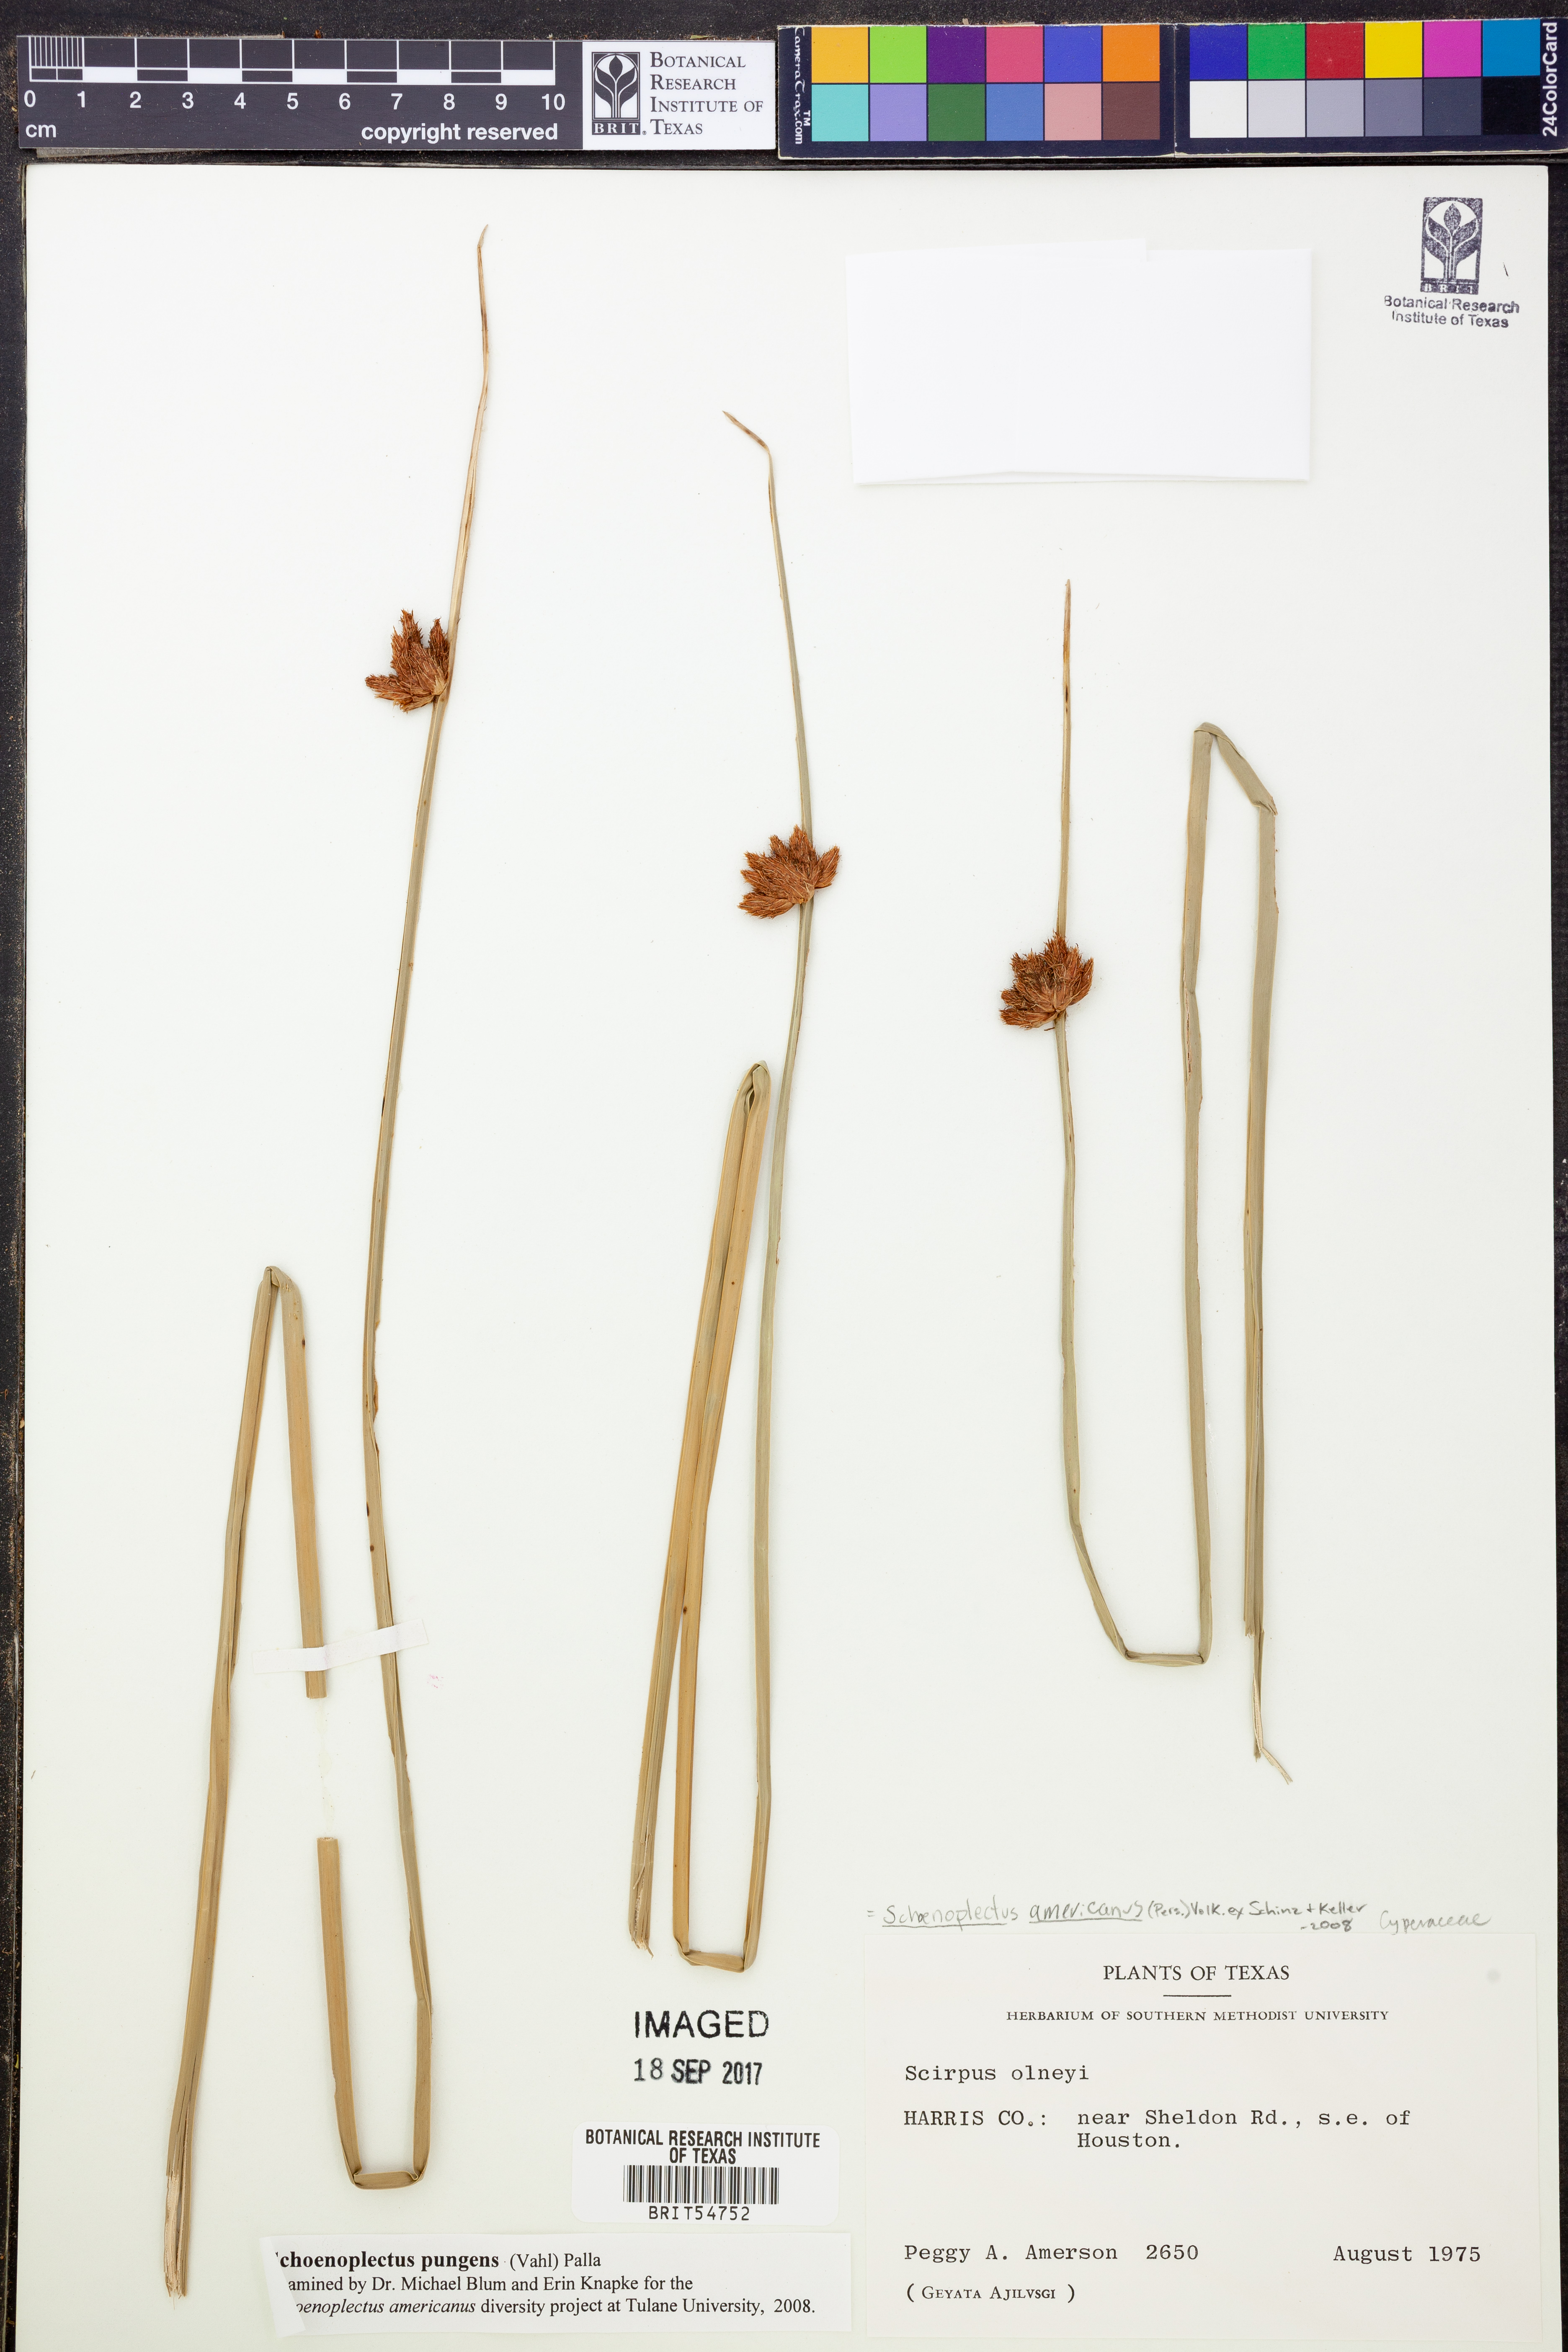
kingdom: Plantae
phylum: Tracheophyta
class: Liliopsida
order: Poales
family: Cyperaceae
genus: Schoenoplectus
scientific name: Schoenoplectus americanus
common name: American three-square bulrush
